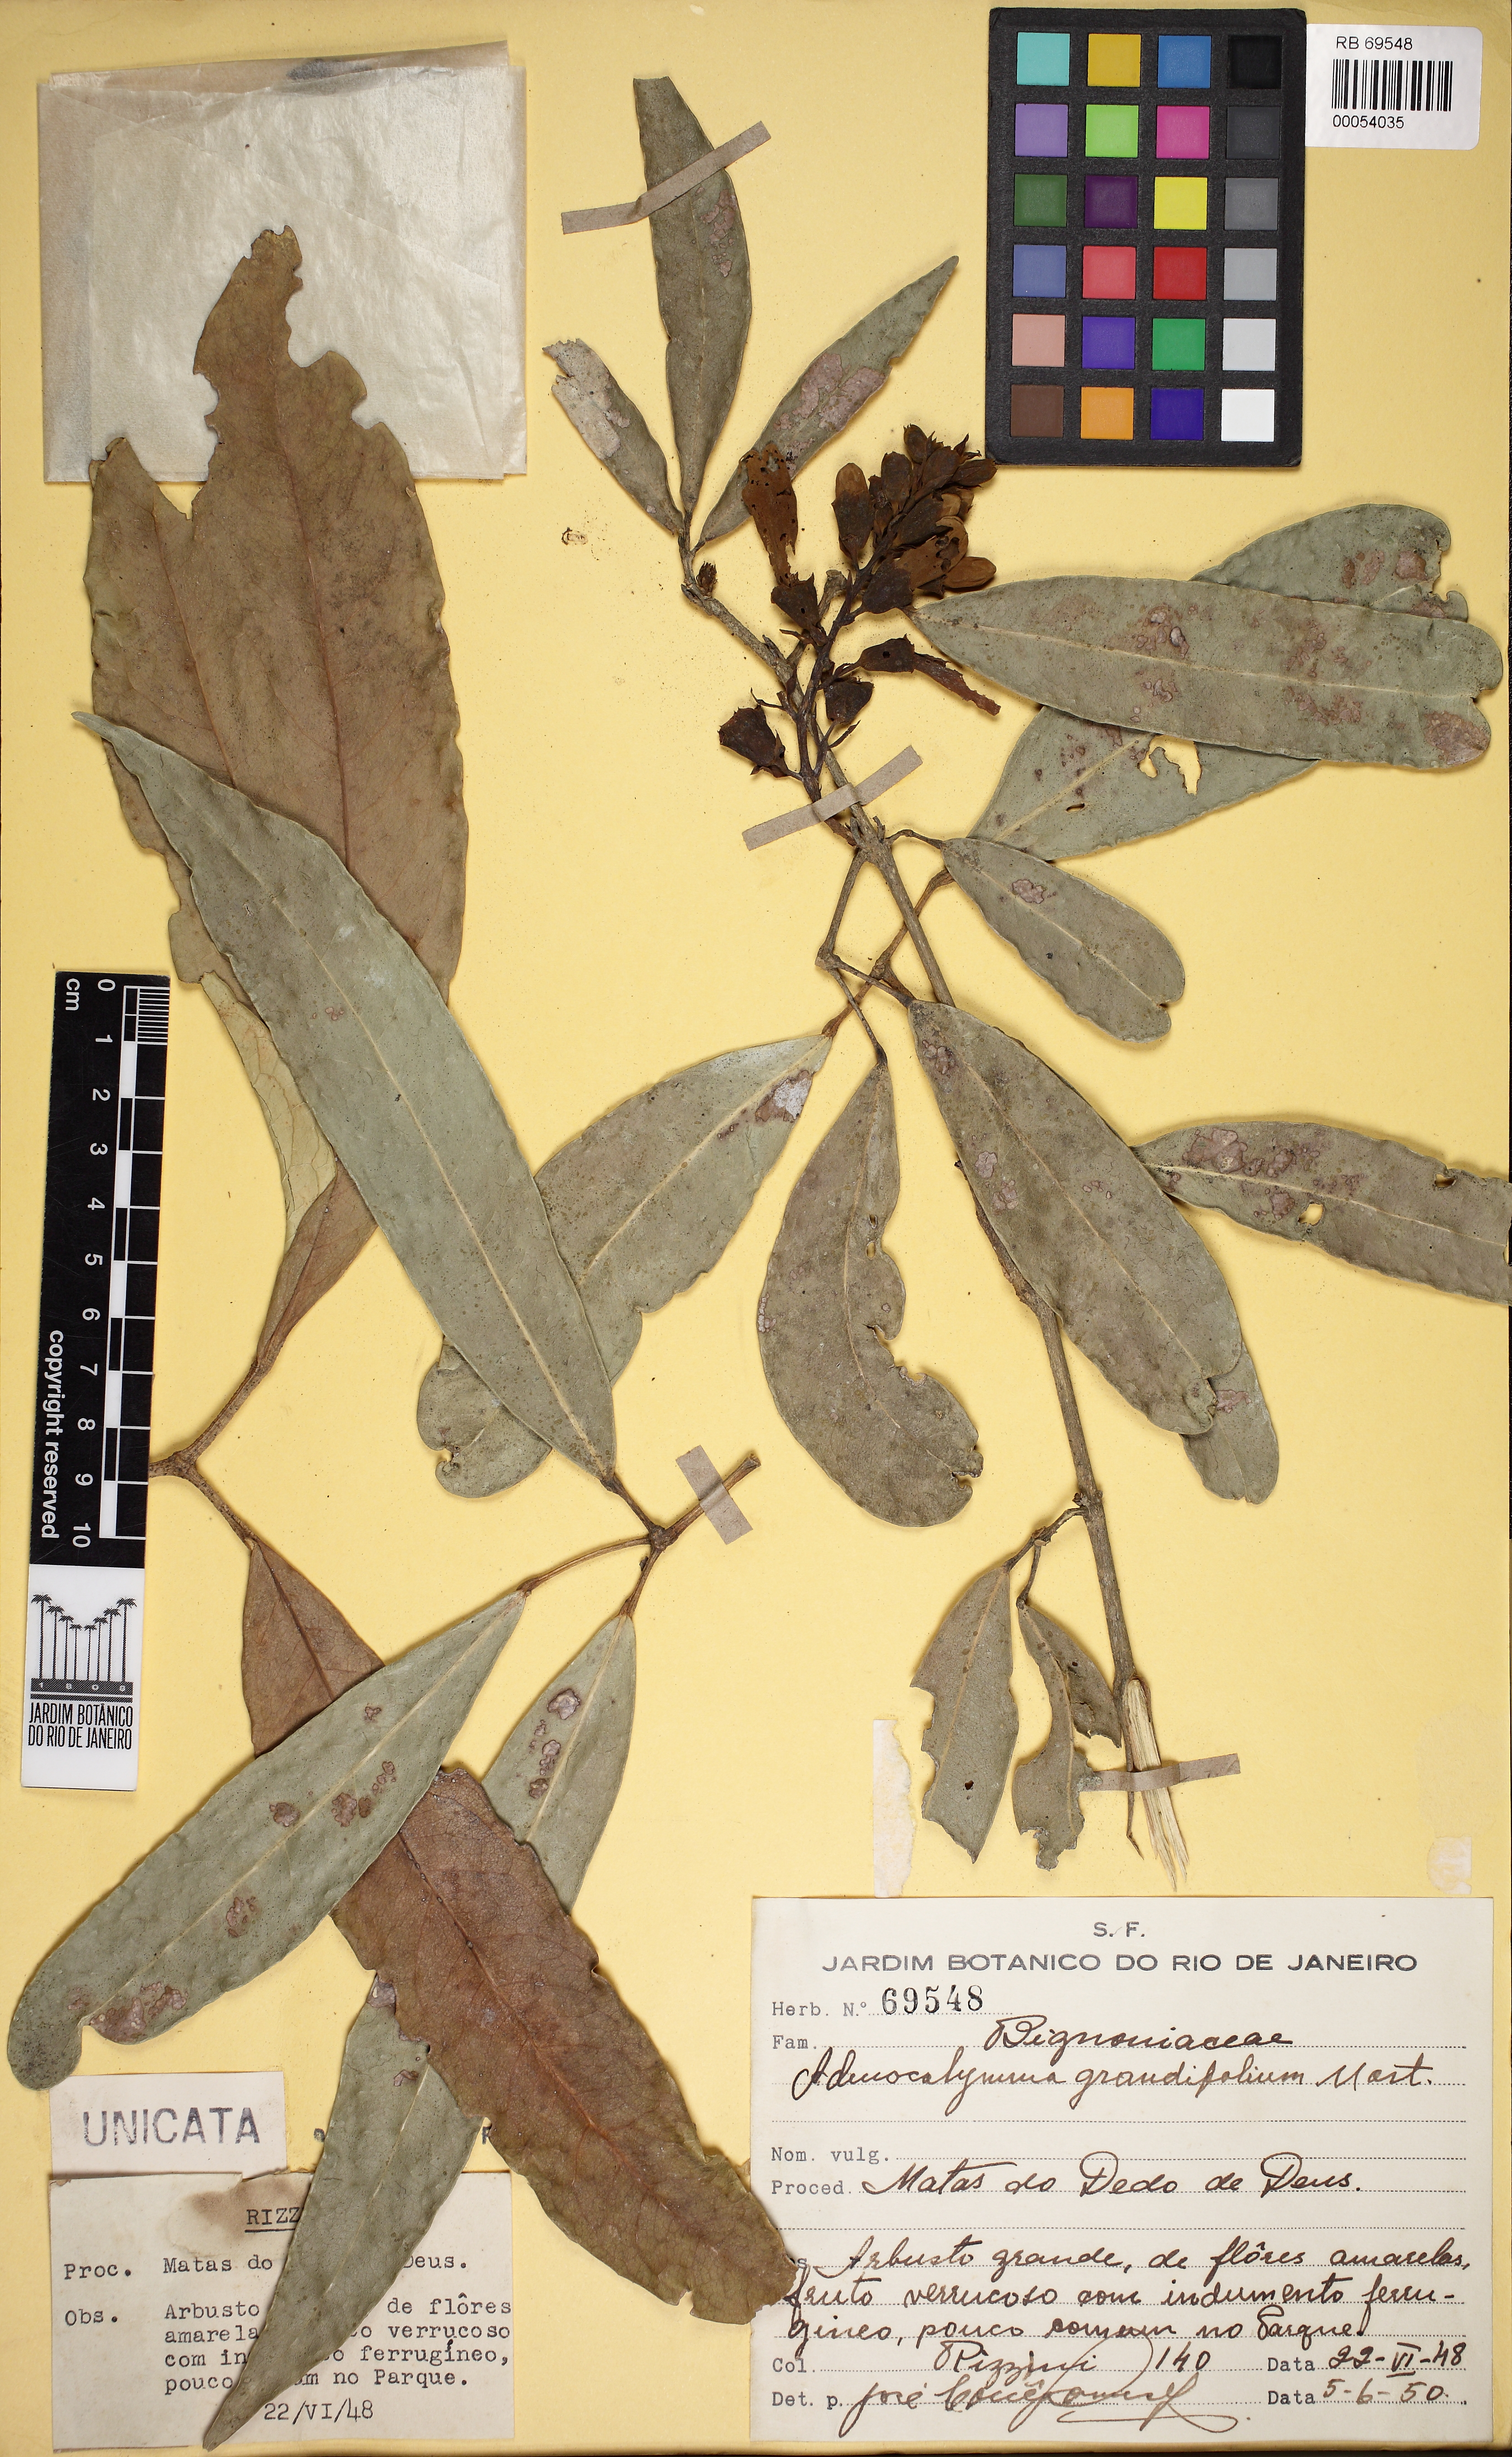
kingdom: Plantae
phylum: Tracheophyta
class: Magnoliopsida
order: Lamiales
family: Bignoniaceae
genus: Adenocalymma
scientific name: Adenocalymma ternatum
